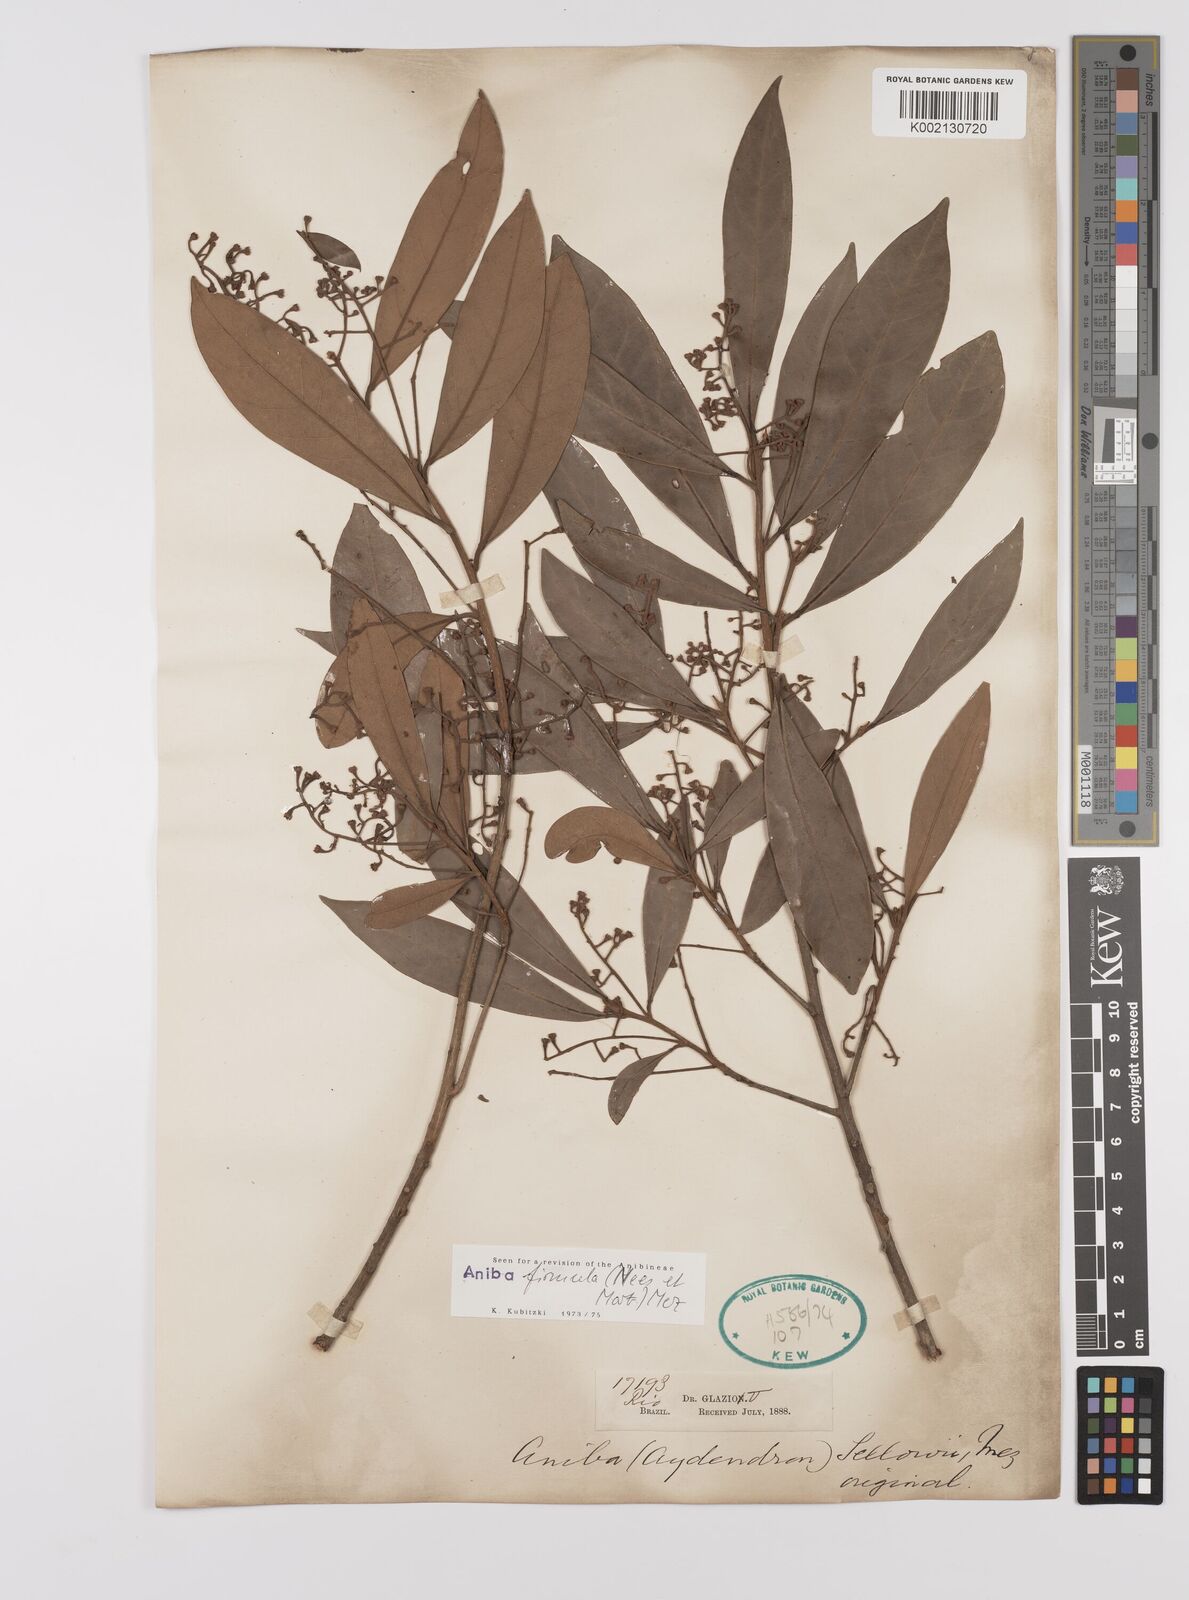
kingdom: Plantae
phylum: Tracheophyta
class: Magnoliopsida
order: Laurales
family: Lauraceae
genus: Aniba
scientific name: Aniba firmula
